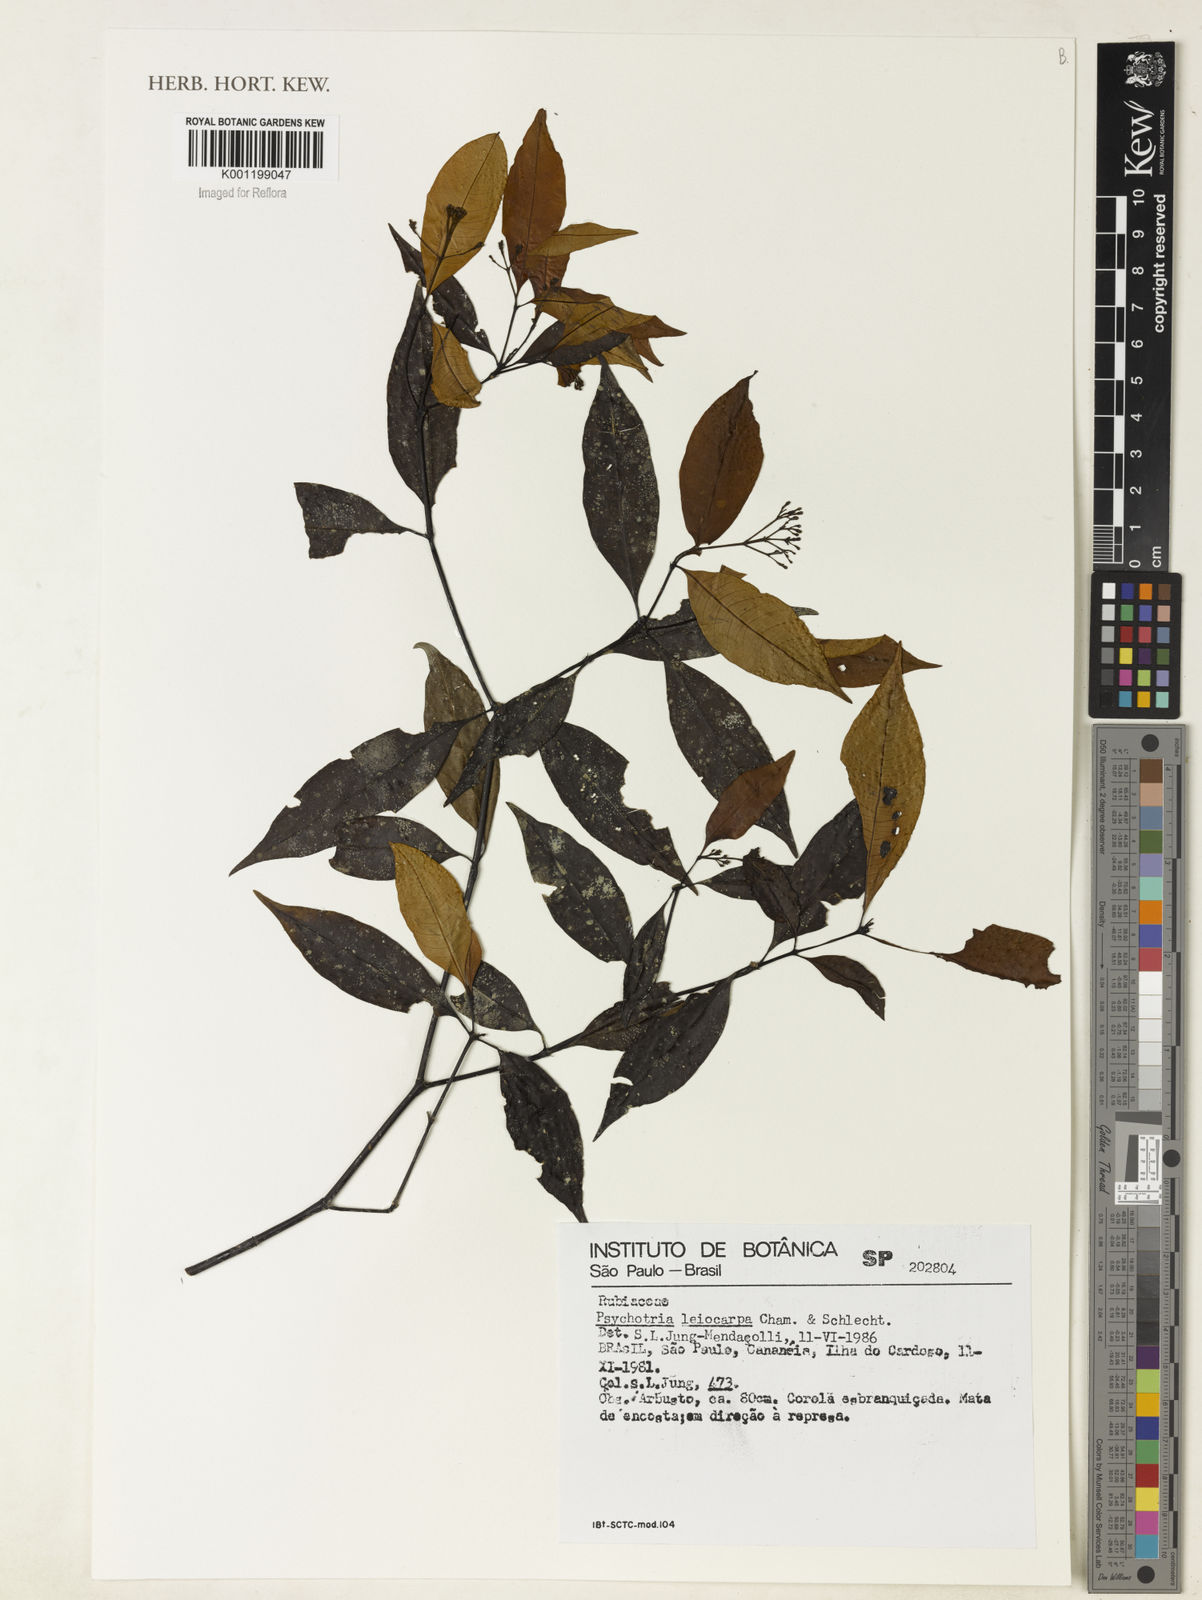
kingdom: Plantae
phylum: Tracheophyta
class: Magnoliopsida
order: Gentianales
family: Rubiaceae
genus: Psychotria
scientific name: Psychotria leiocarpa
